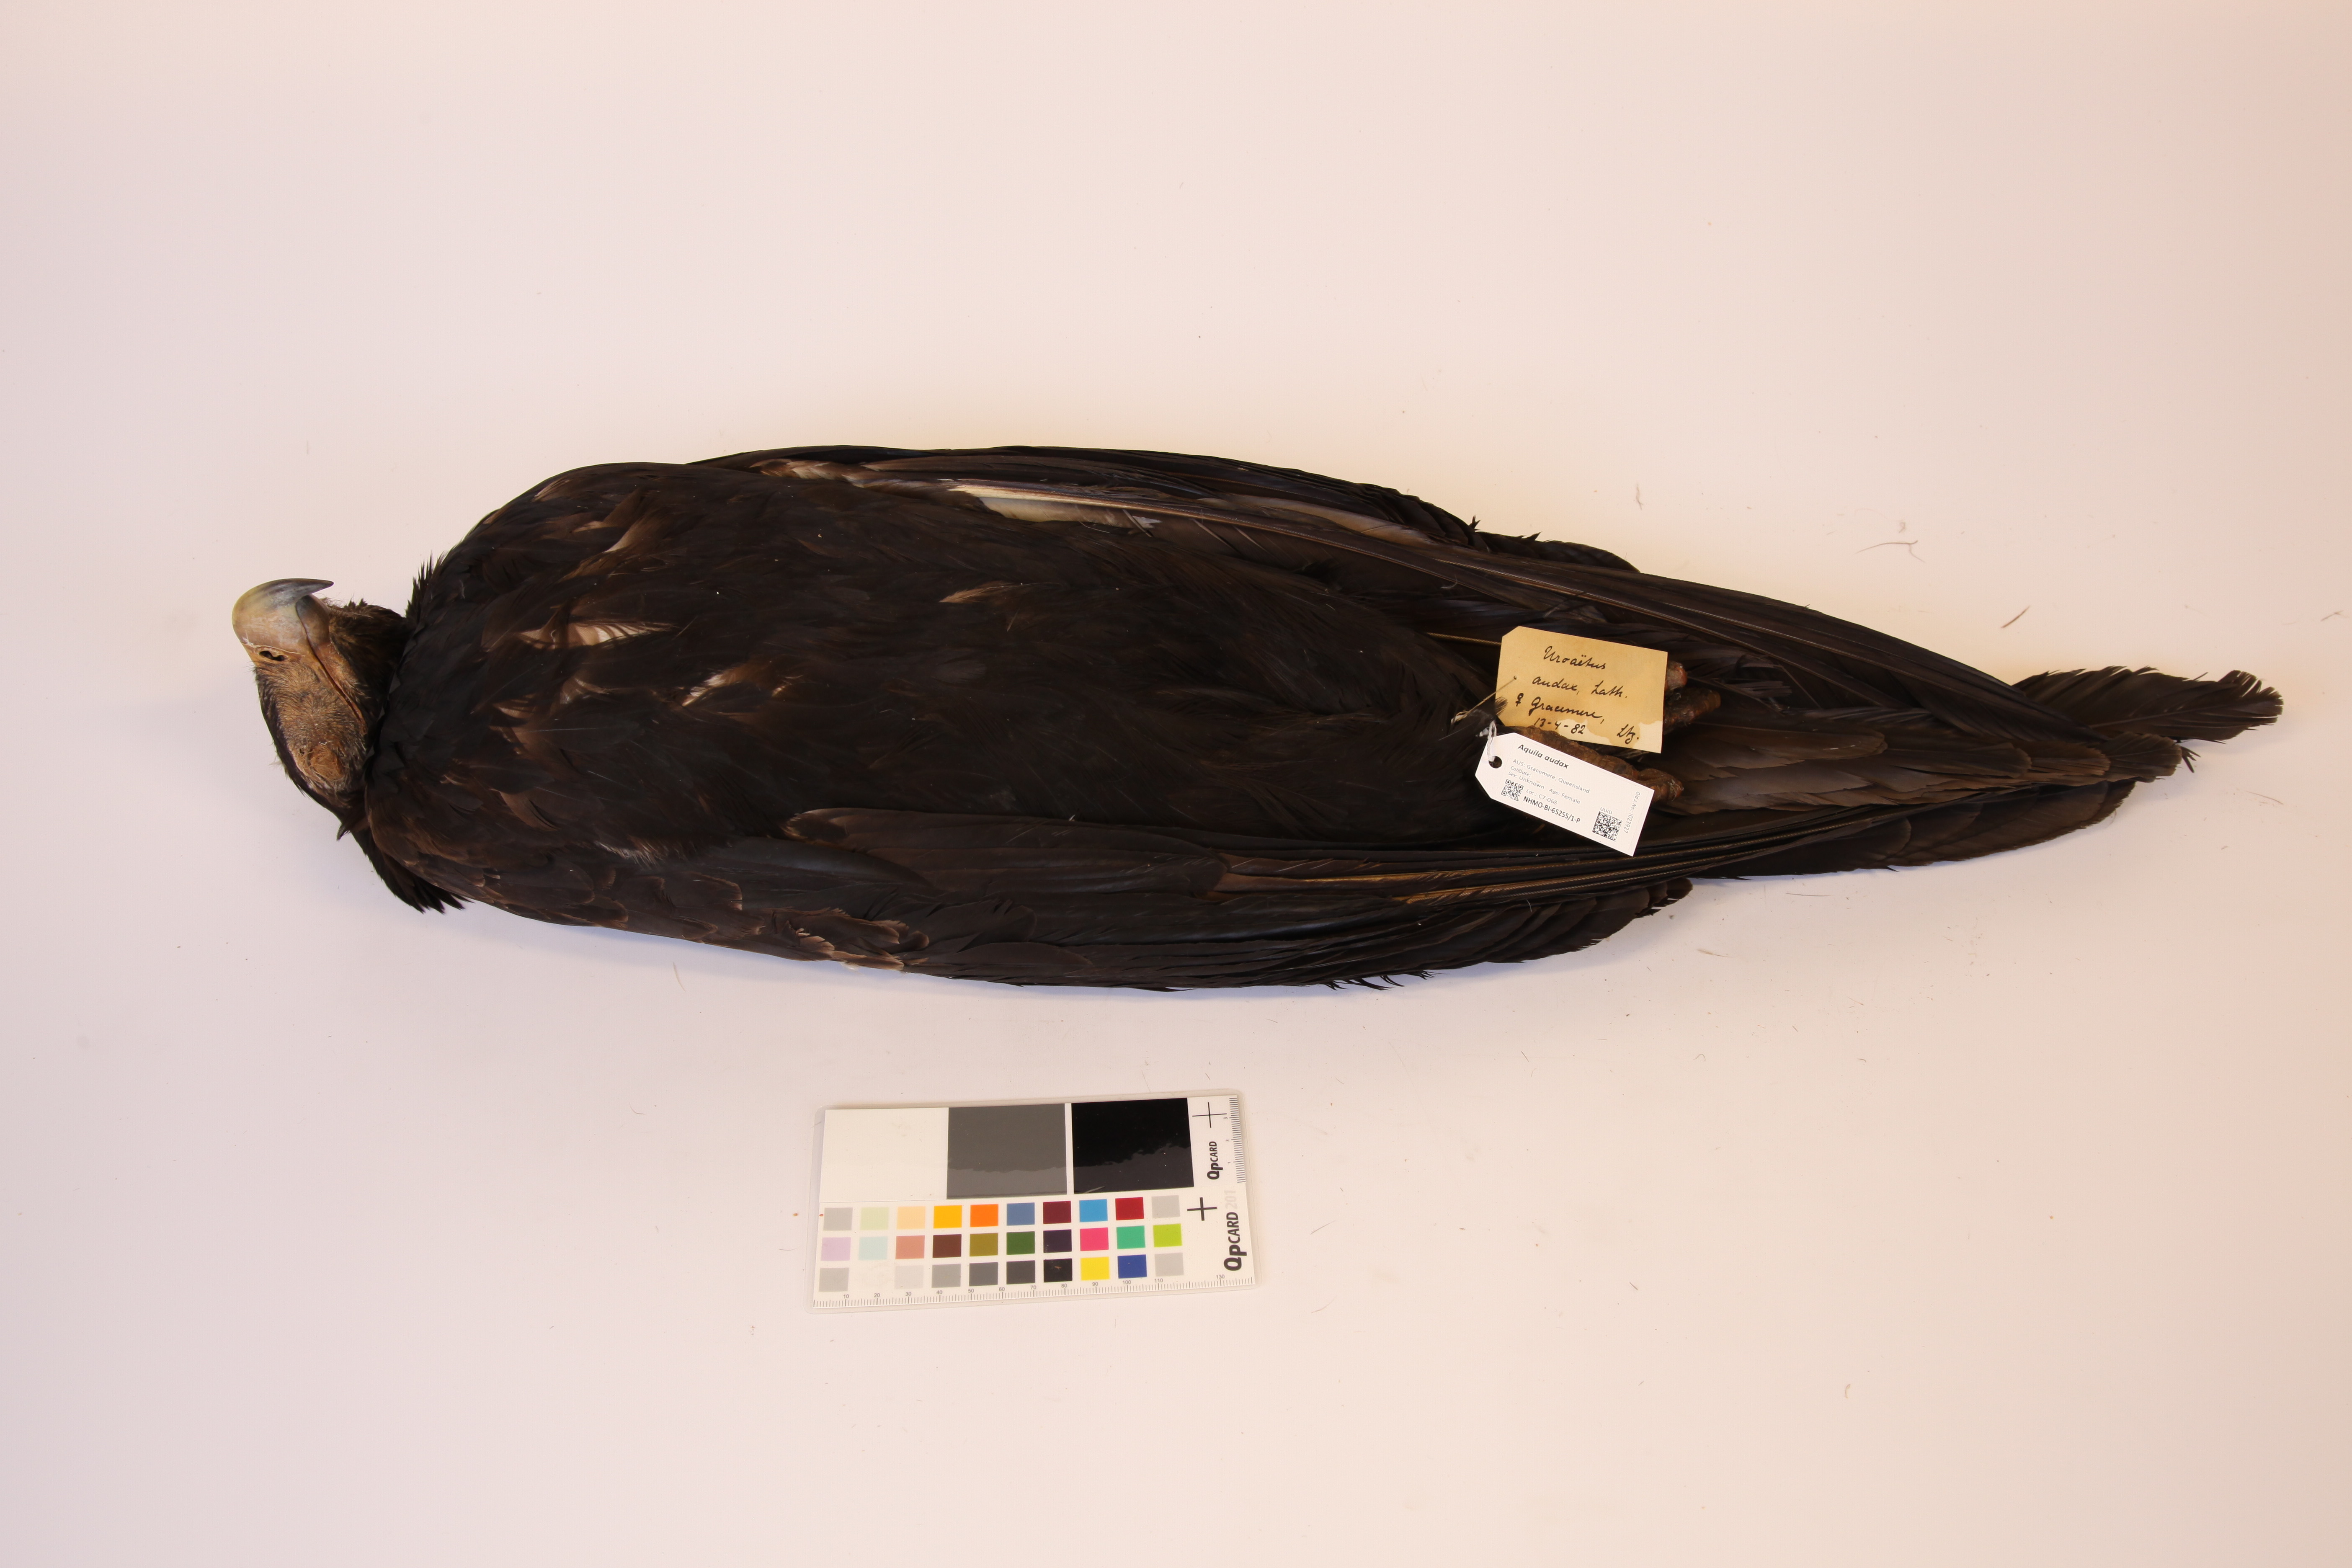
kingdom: Animalia
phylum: Chordata
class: Aves
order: Accipitriformes
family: Accipitridae
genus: Aquila
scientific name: Aquila audax
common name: Wedge-tailed eagle
